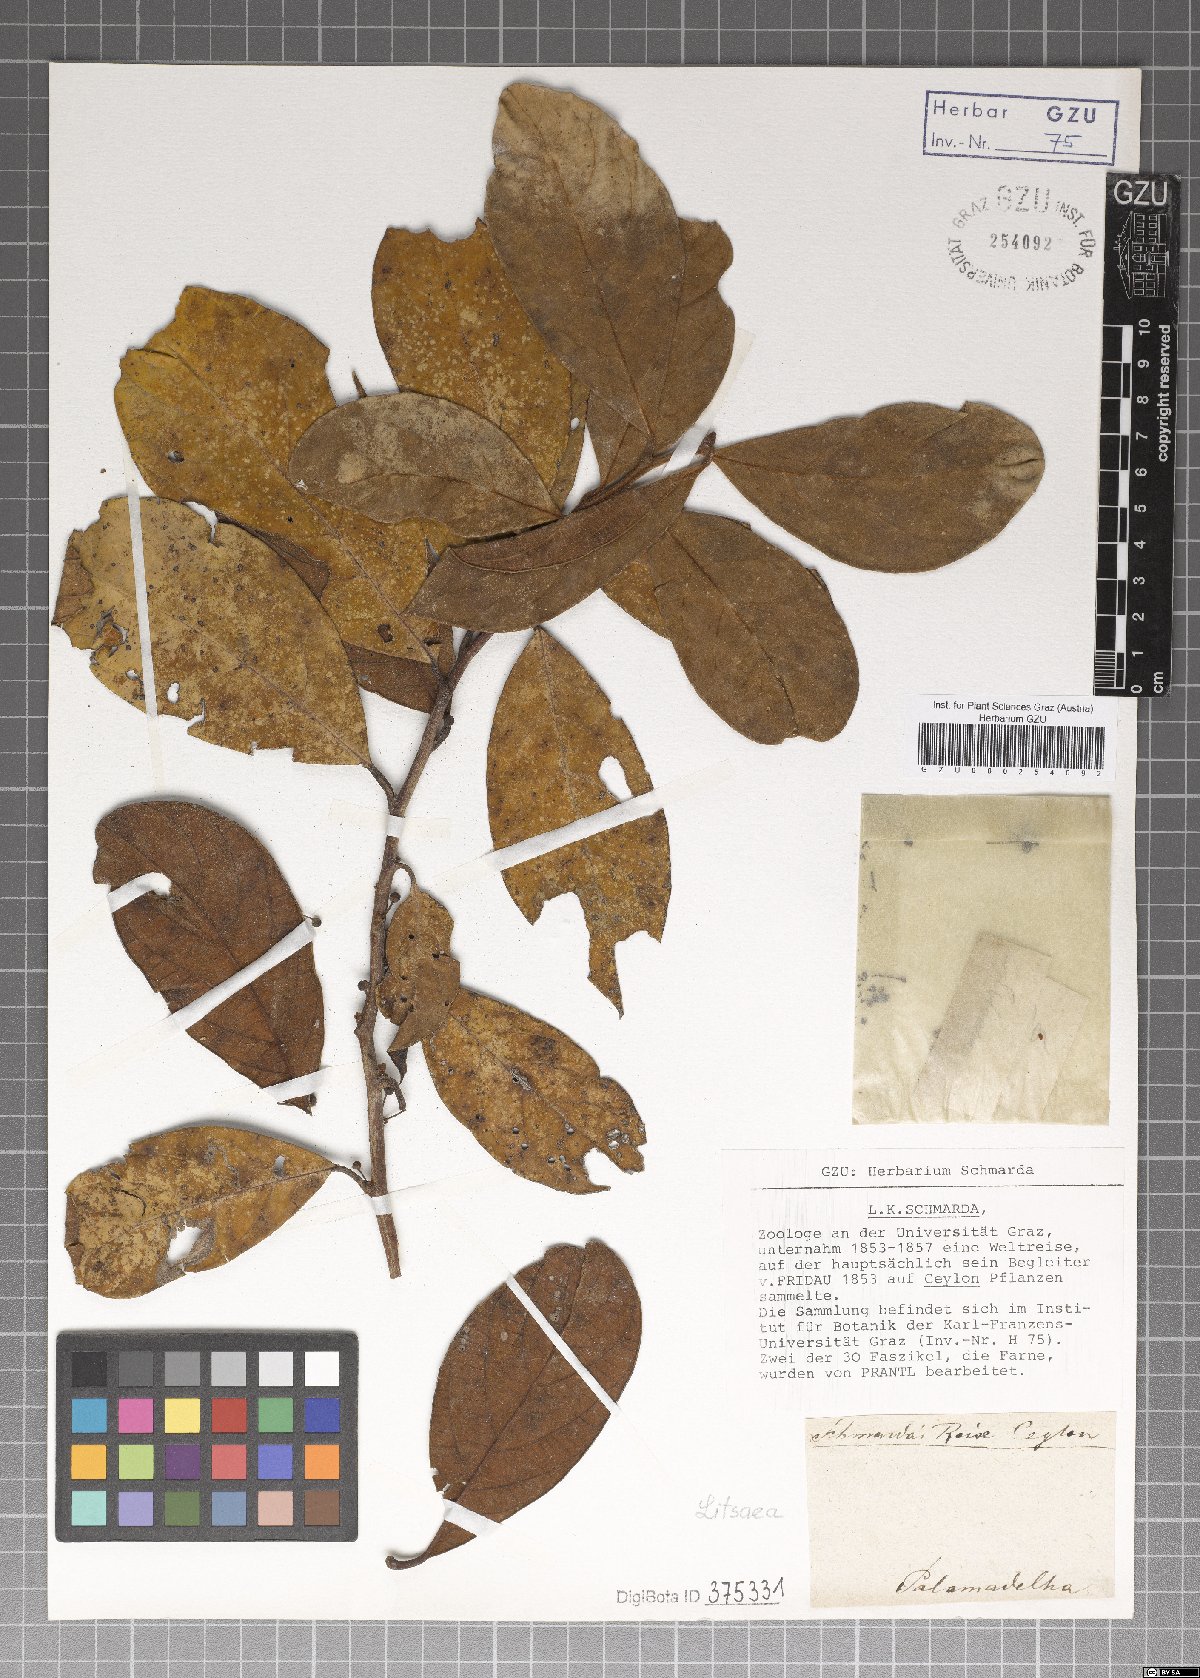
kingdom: Plantae
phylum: Tracheophyta
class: Magnoliopsida
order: Laurales
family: Lauraceae
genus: Litsea
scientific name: Litsea
